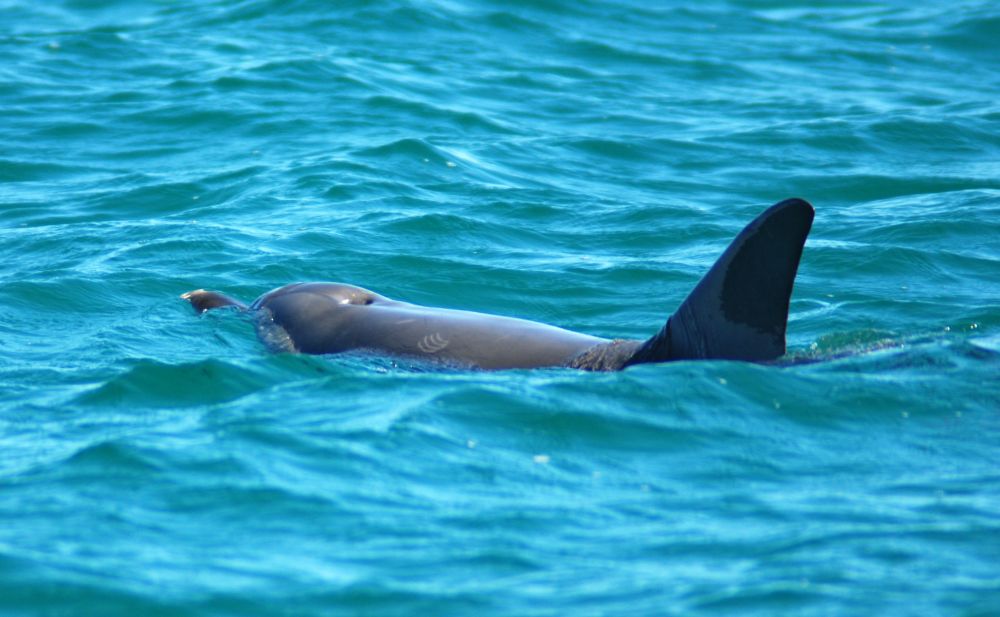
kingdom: Animalia
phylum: Chordata
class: Mammalia
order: Cetacea
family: Delphinidae
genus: Tursiops
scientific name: Tursiops truncatus
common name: Bottlenose dolphin
